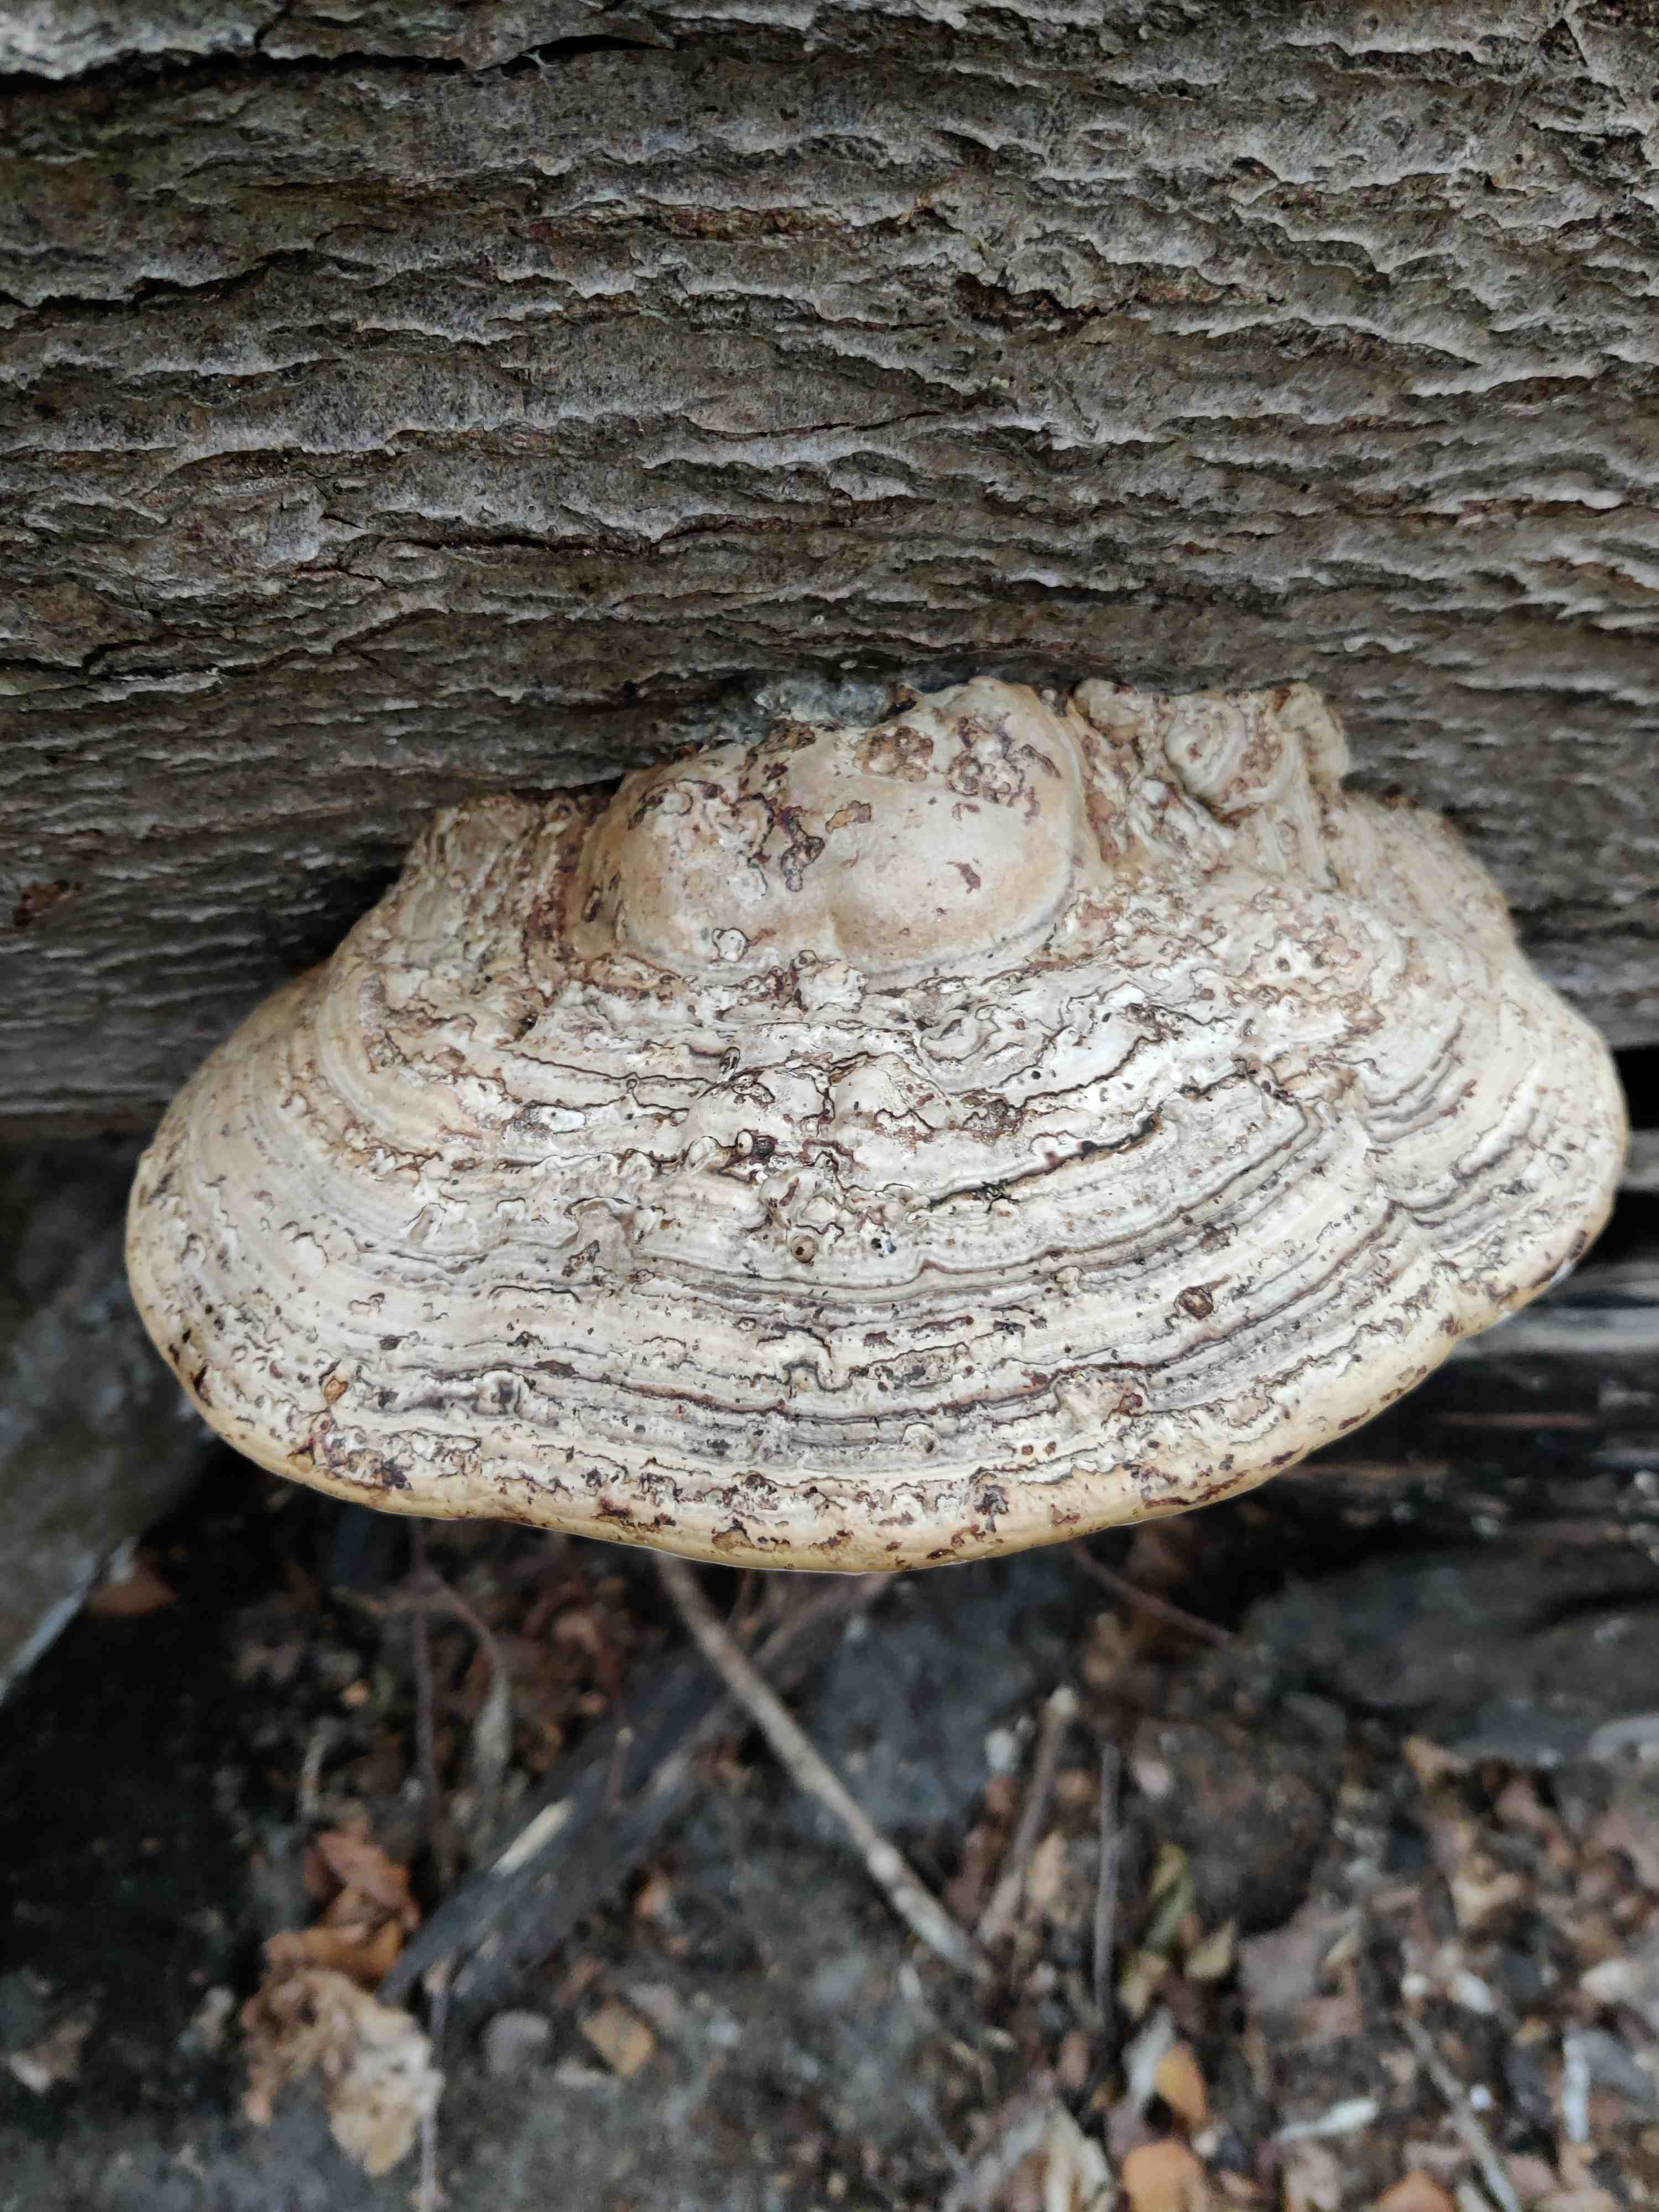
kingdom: Fungi
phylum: Basidiomycota
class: Agaricomycetes
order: Polyporales
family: Polyporaceae
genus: Fomes
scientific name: Fomes fomentarius
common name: tøndersvamp
